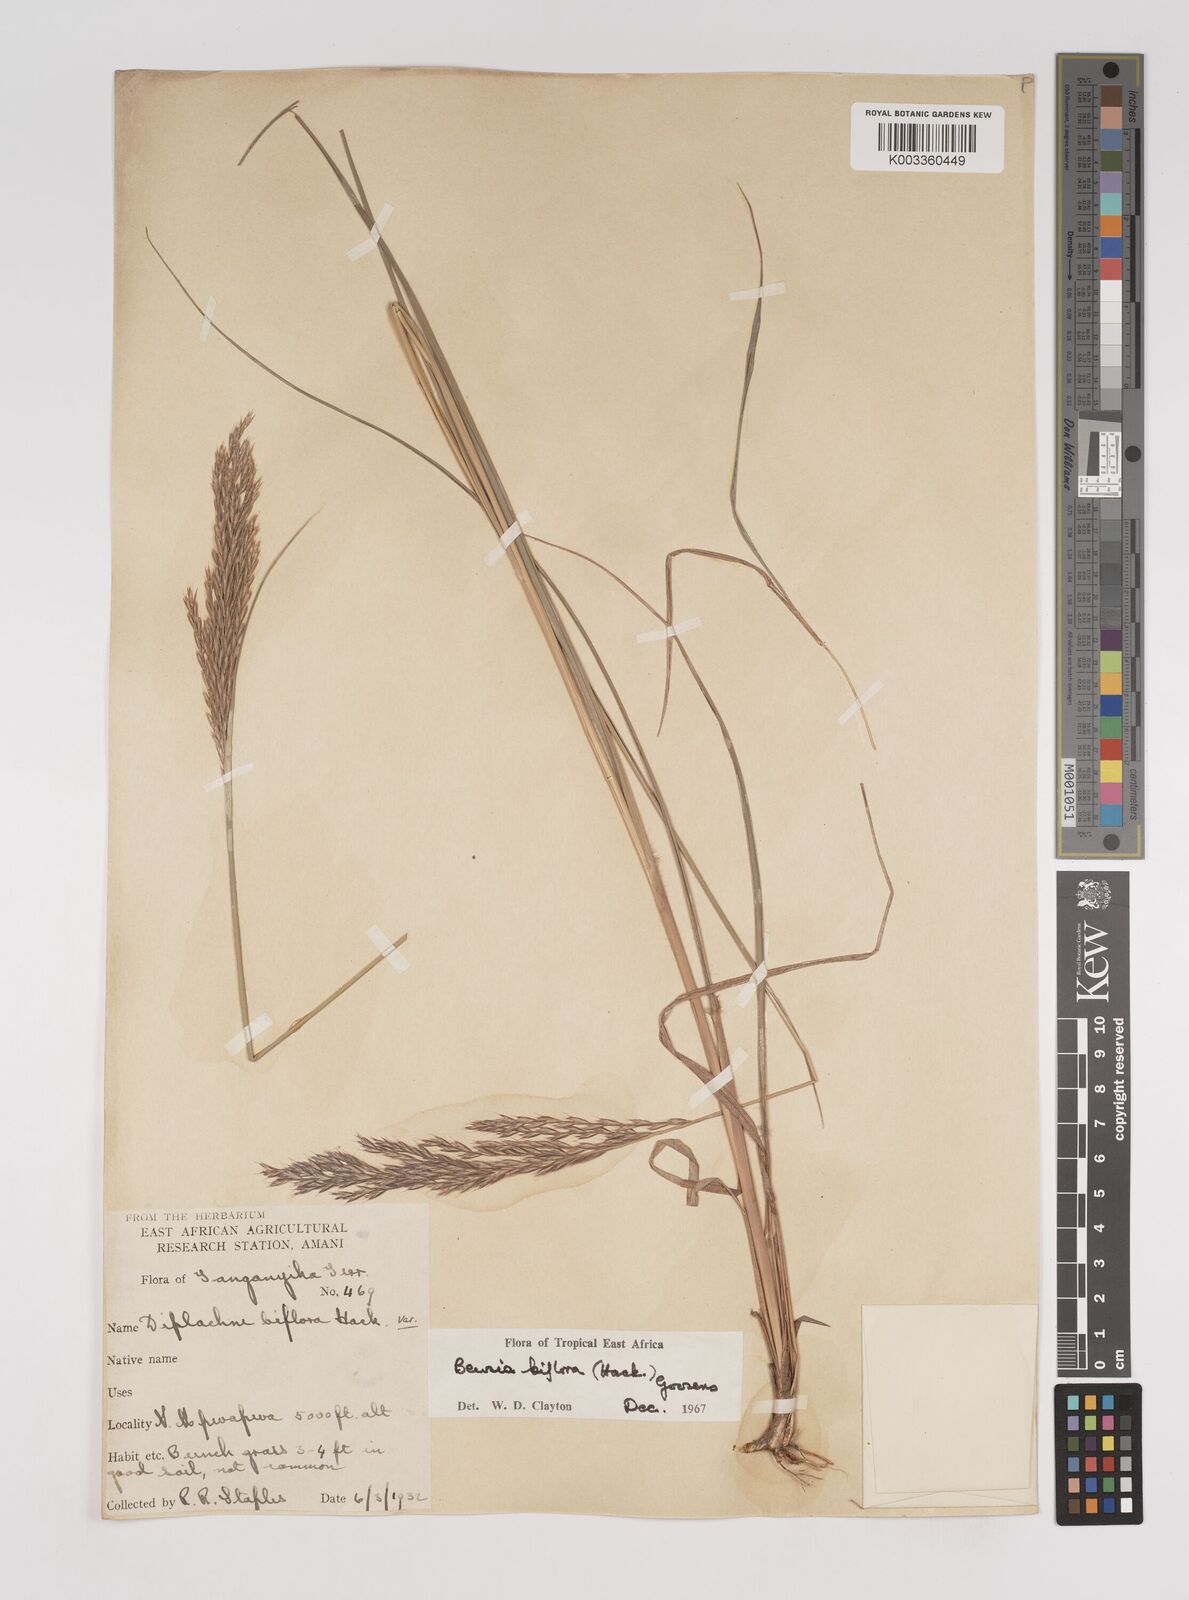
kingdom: Plantae
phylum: Tracheophyta
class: Liliopsida
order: Poales
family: Poaceae
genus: Bewsia
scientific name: Bewsia biflora
